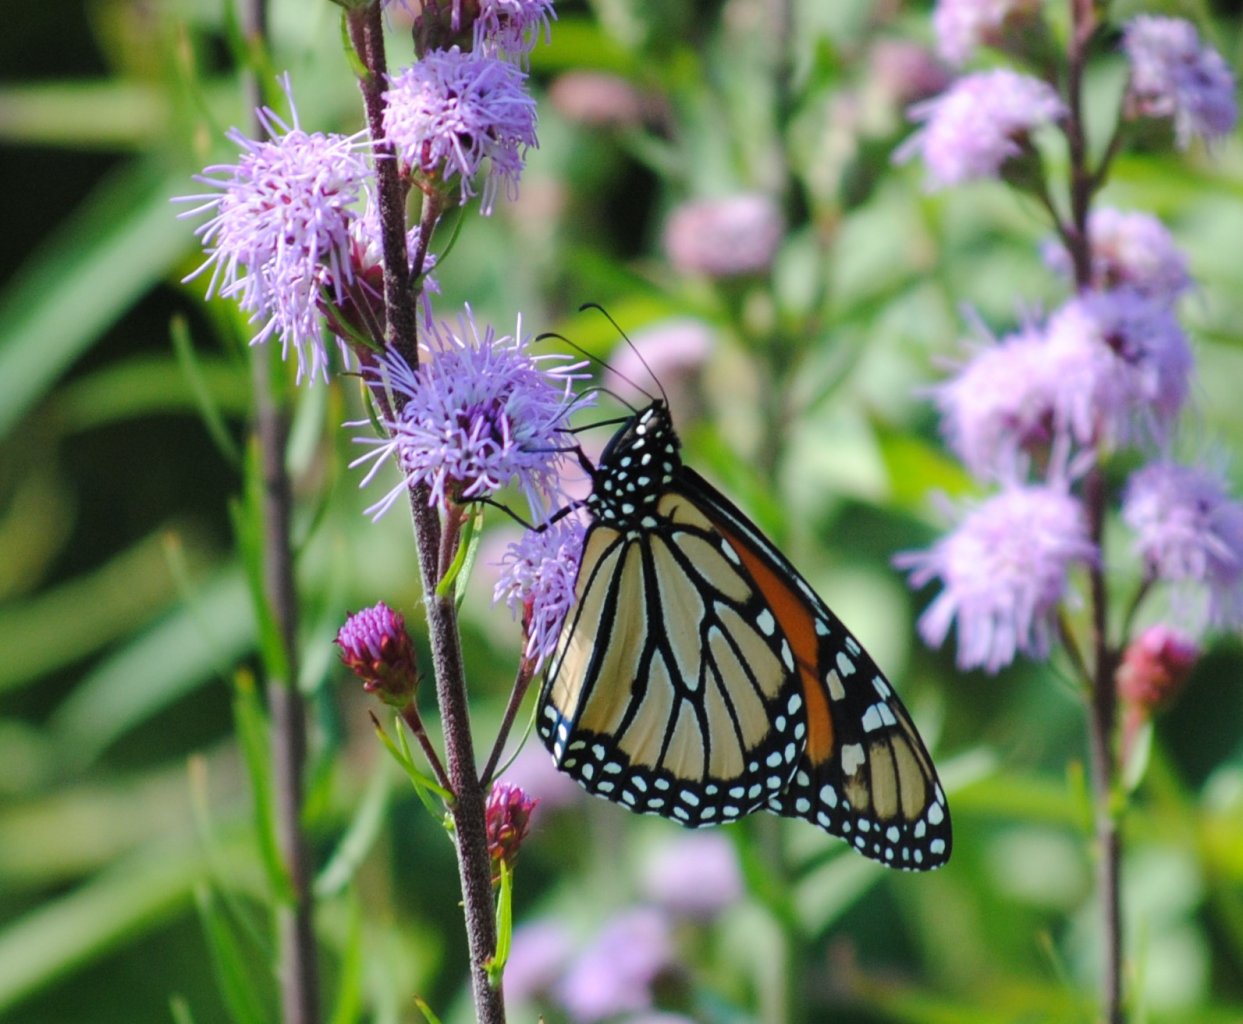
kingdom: Animalia
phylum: Arthropoda
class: Insecta
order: Lepidoptera
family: Nymphalidae
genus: Danaus
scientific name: Danaus plexippus
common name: Monarch
